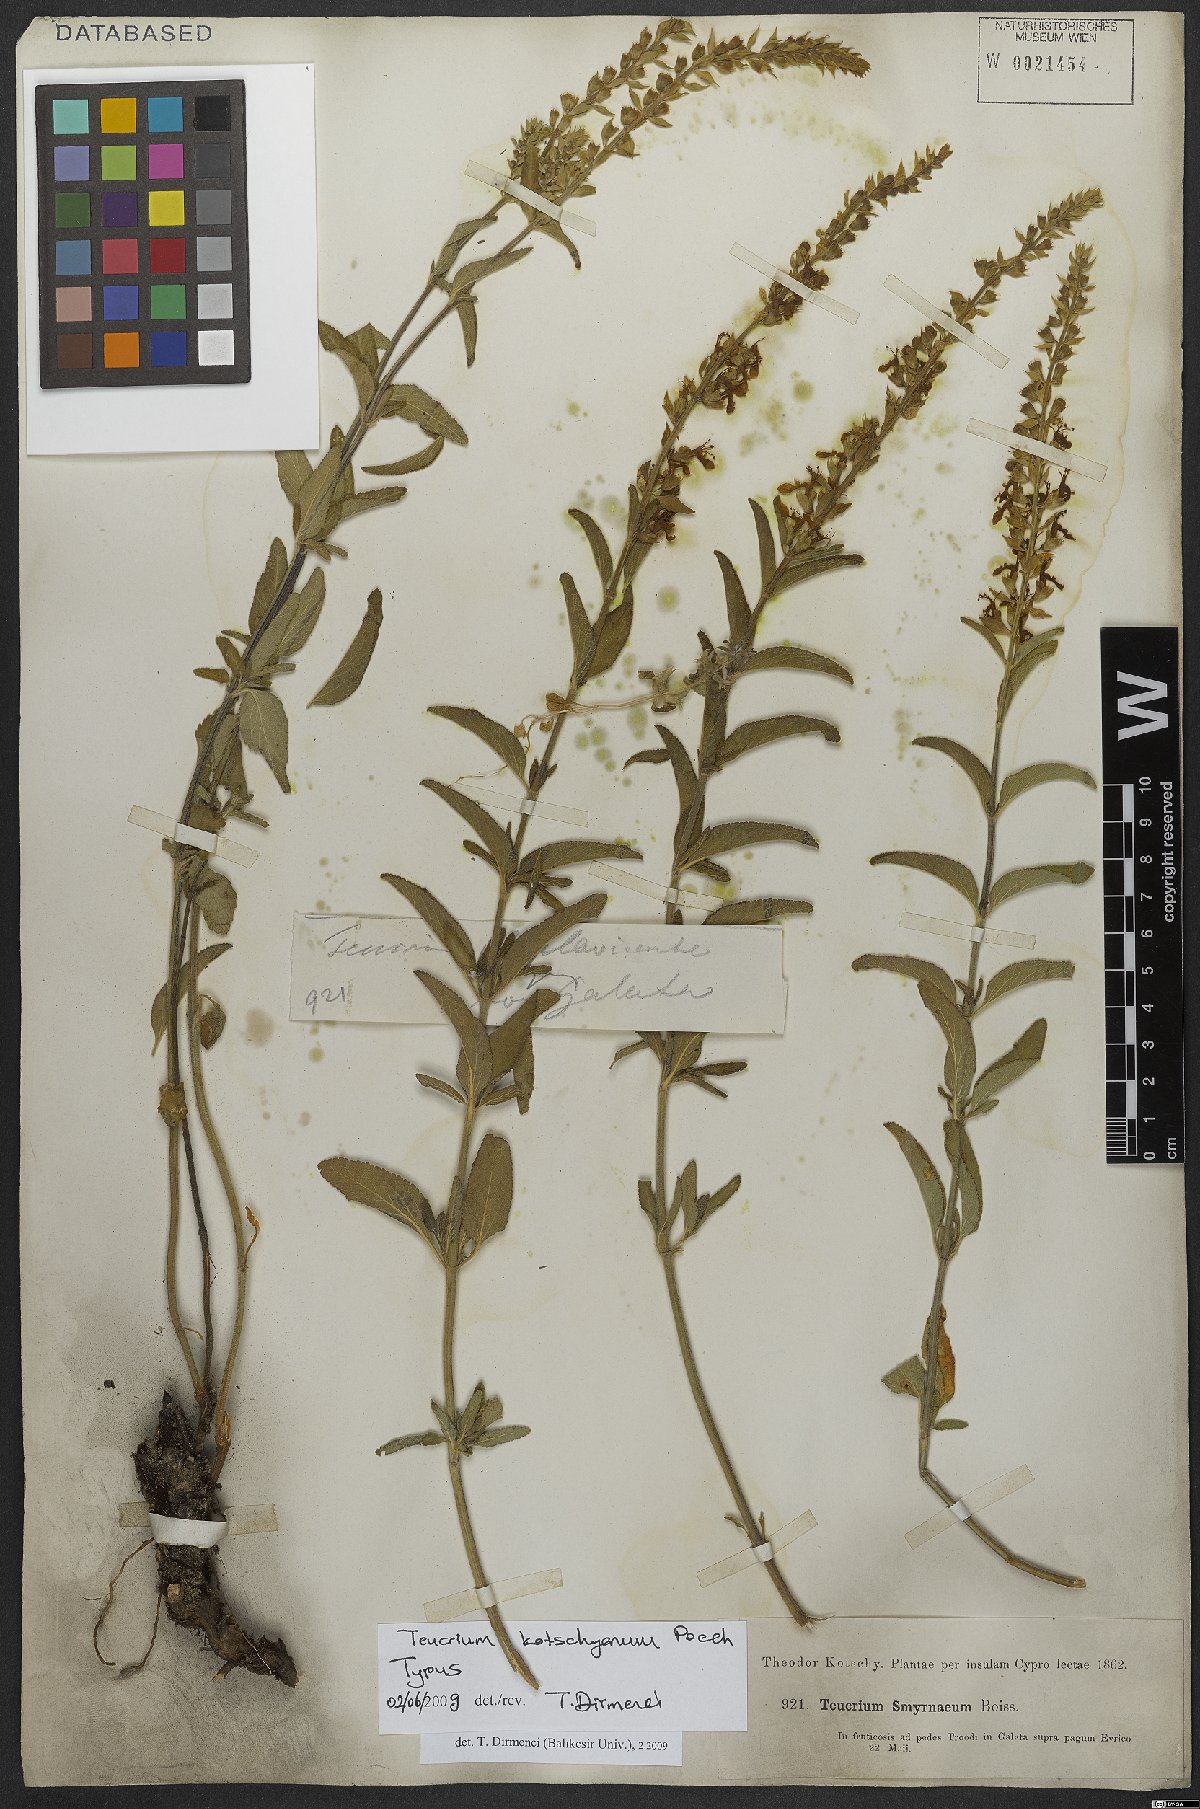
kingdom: Plantae
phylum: Tracheophyta
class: Magnoliopsida
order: Lamiales
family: Lamiaceae
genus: Teucrium
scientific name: Teucrium kotschyanum
